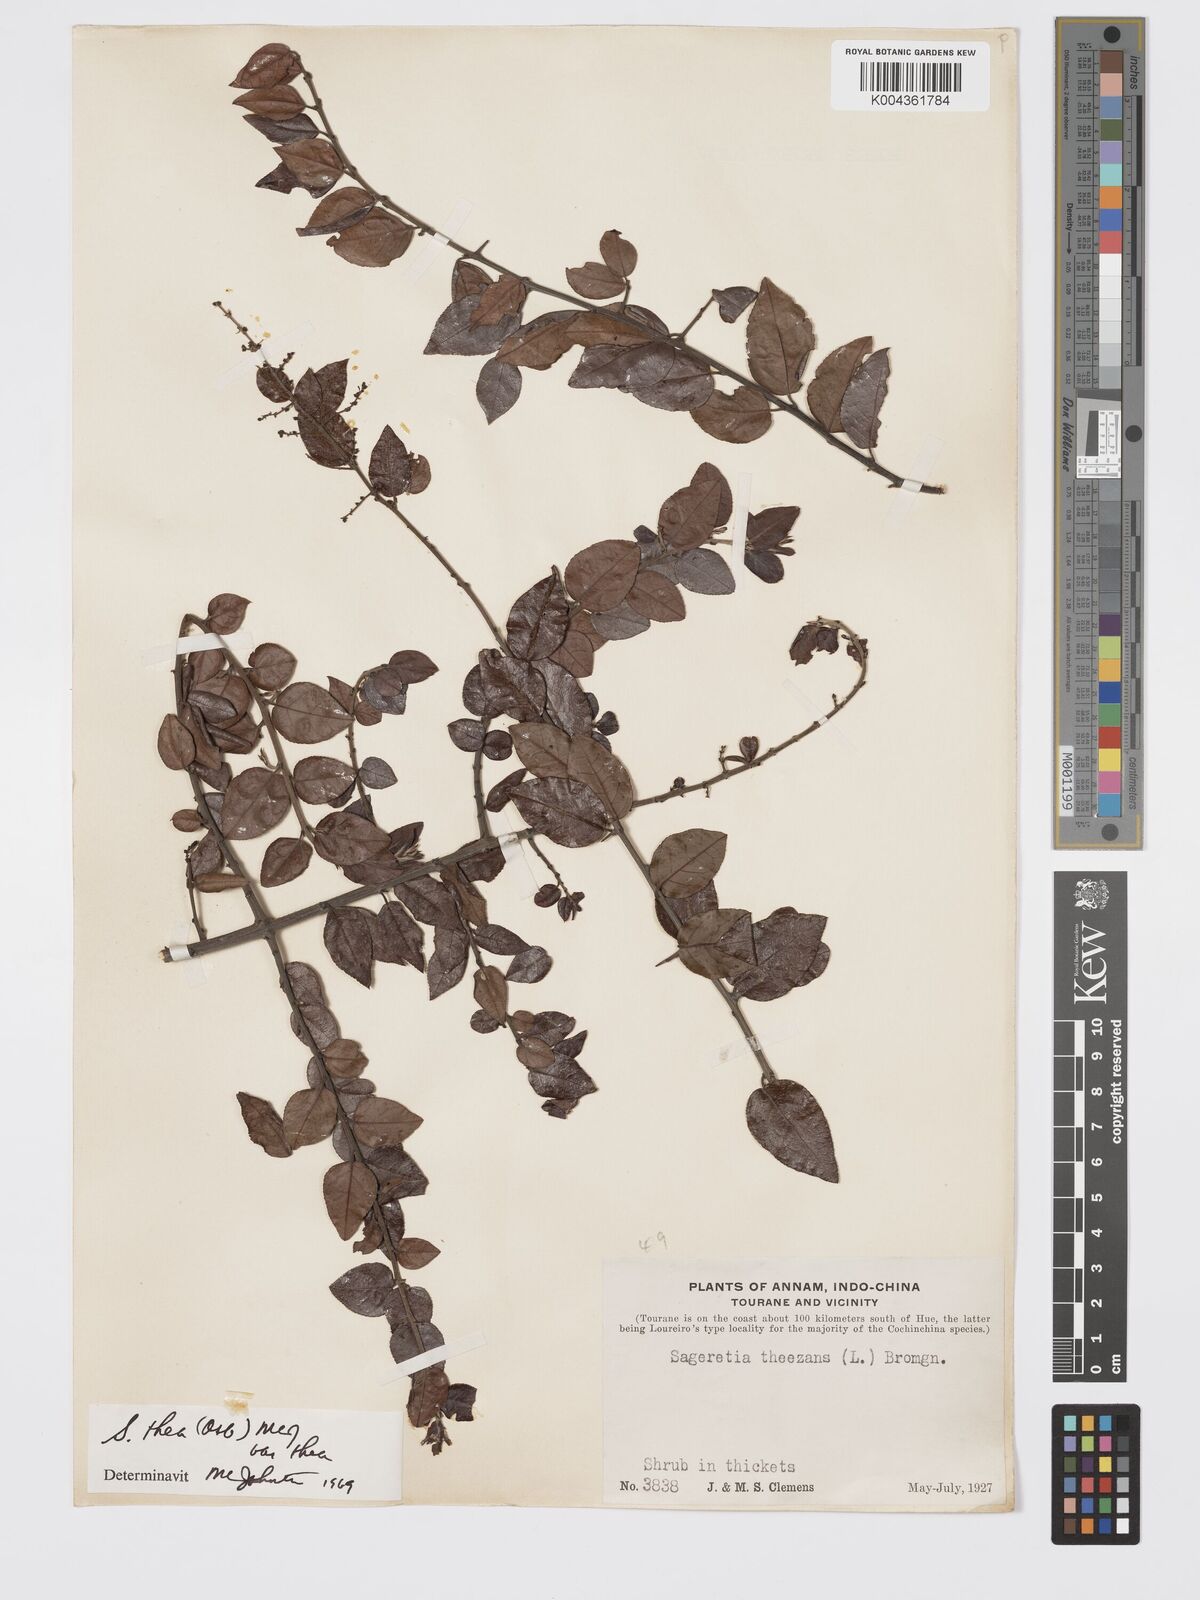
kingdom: Plantae
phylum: Tracheophyta
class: Magnoliopsida
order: Rosales
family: Rhamnaceae
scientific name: Rhamnaceae
